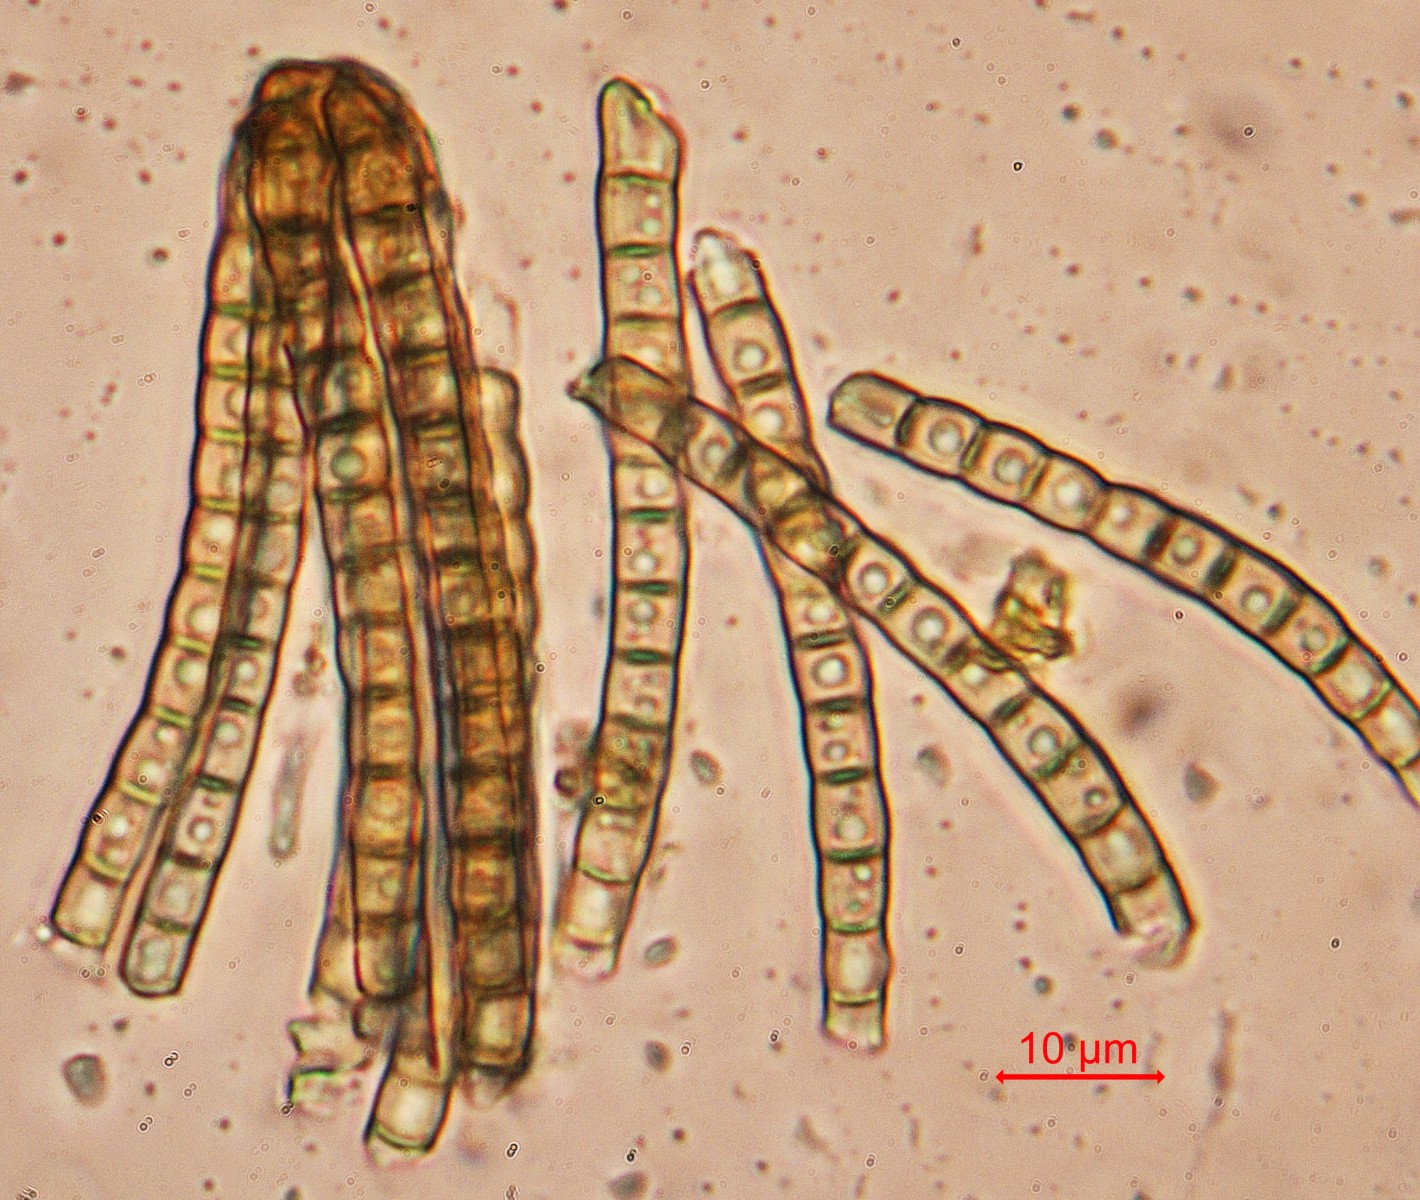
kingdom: Fungi
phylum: Ascomycota
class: Dothideomycetes
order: Pleosporales
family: Cryptocoryneaceae
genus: Cryptocoryneum
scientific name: Cryptocoryneum condensatum
